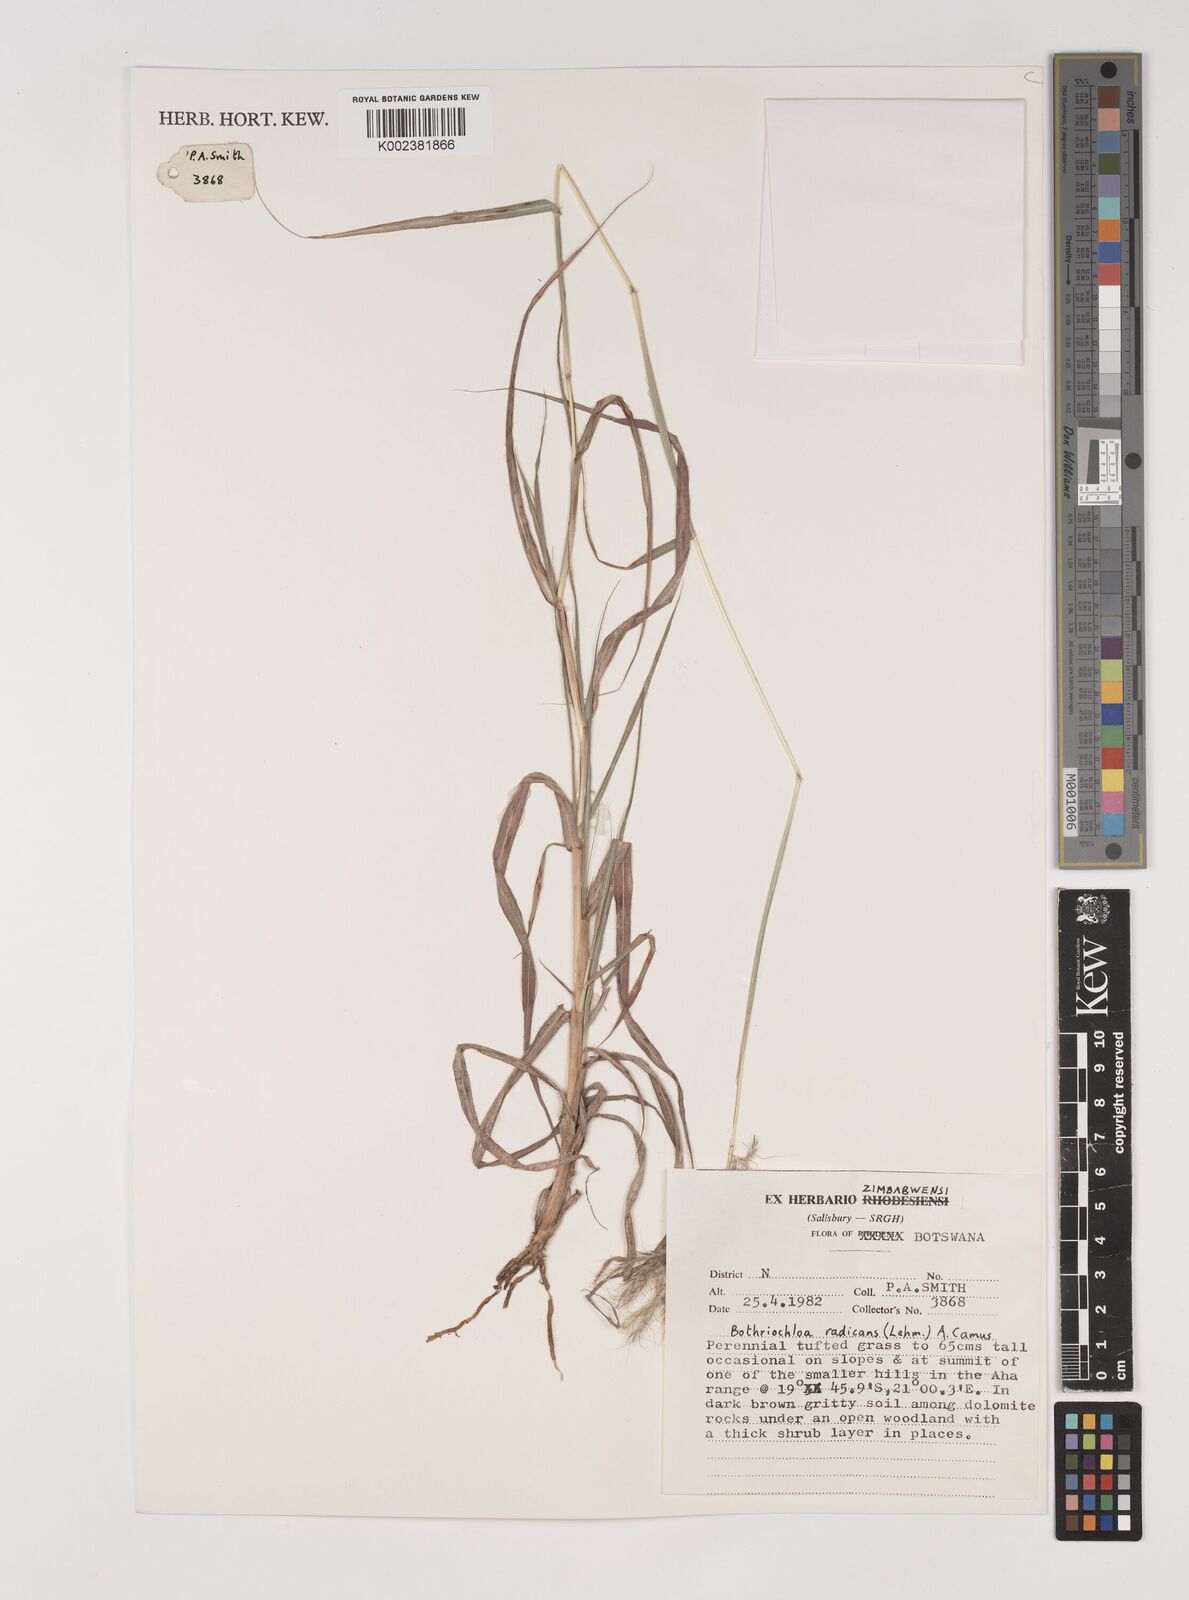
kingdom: Plantae
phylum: Tracheophyta
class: Liliopsida
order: Poales
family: Poaceae
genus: Bothriochloa
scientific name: Bothriochloa radicans
